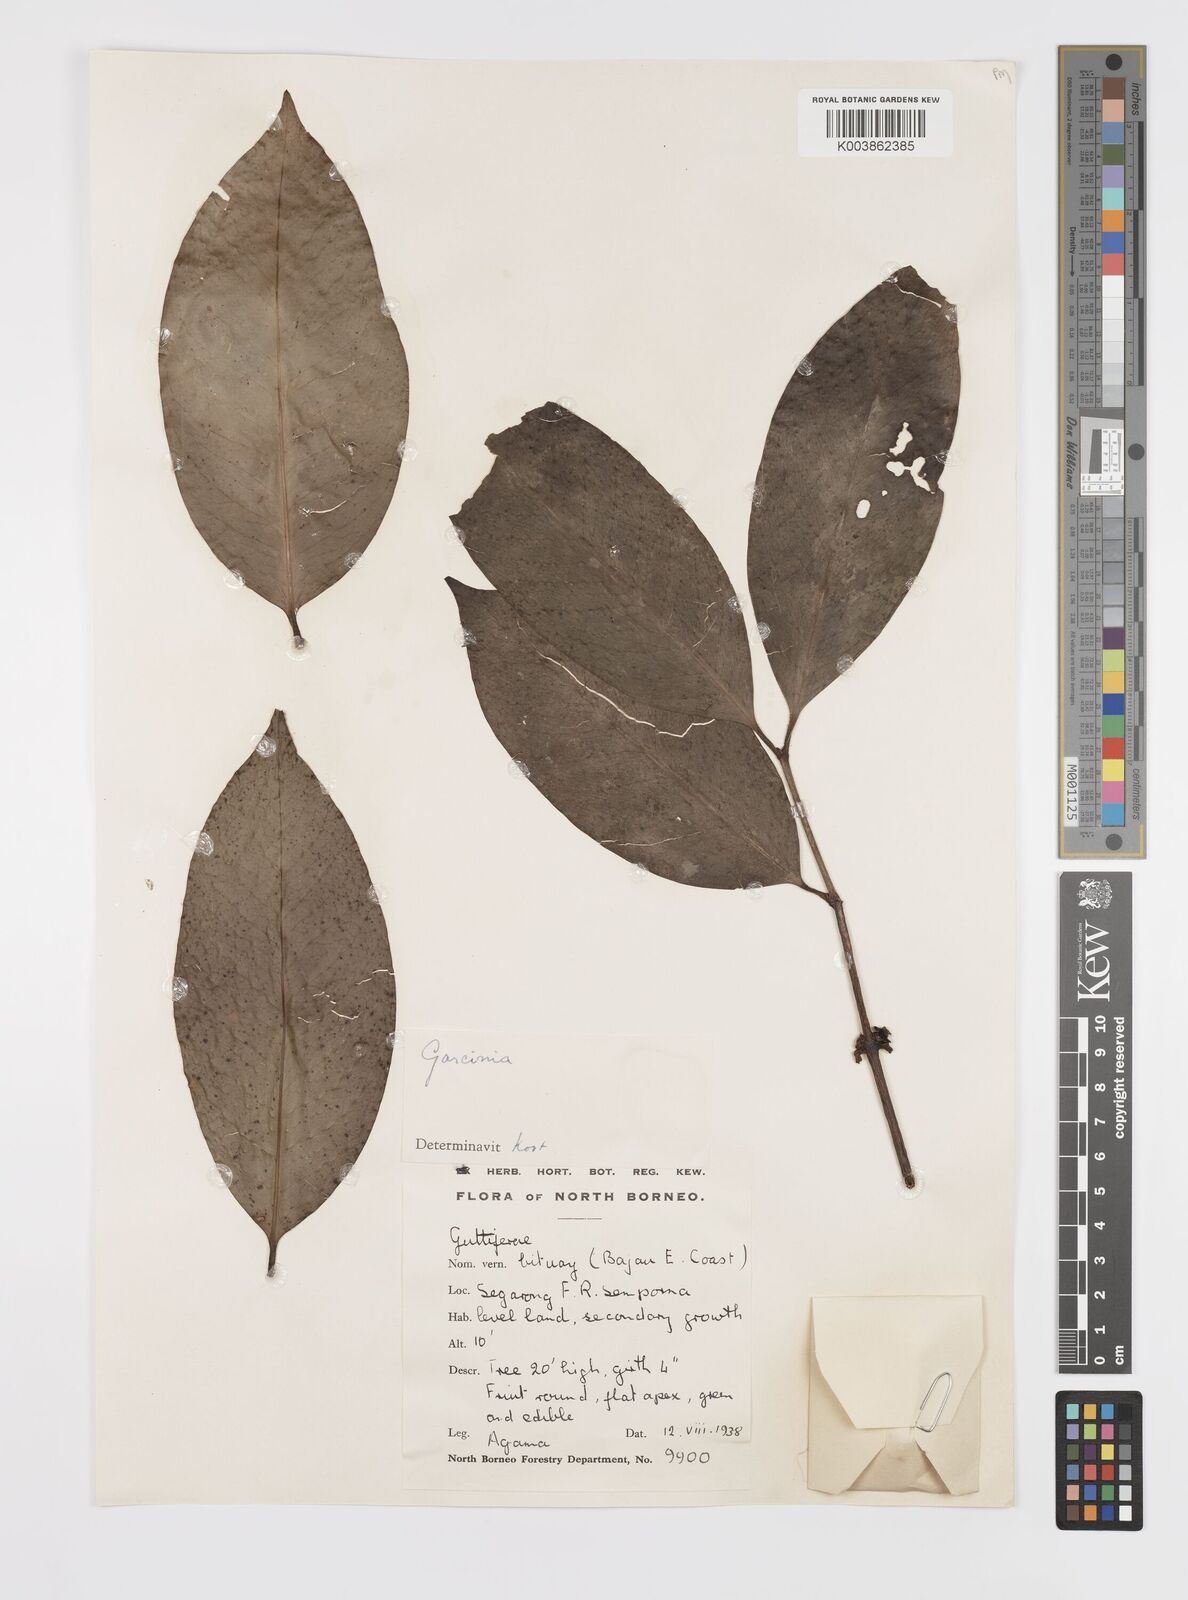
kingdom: Plantae
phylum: Tracheophyta
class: Magnoliopsida
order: Malpighiales
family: Clusiaceae
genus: Garcinia
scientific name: Garcinia
